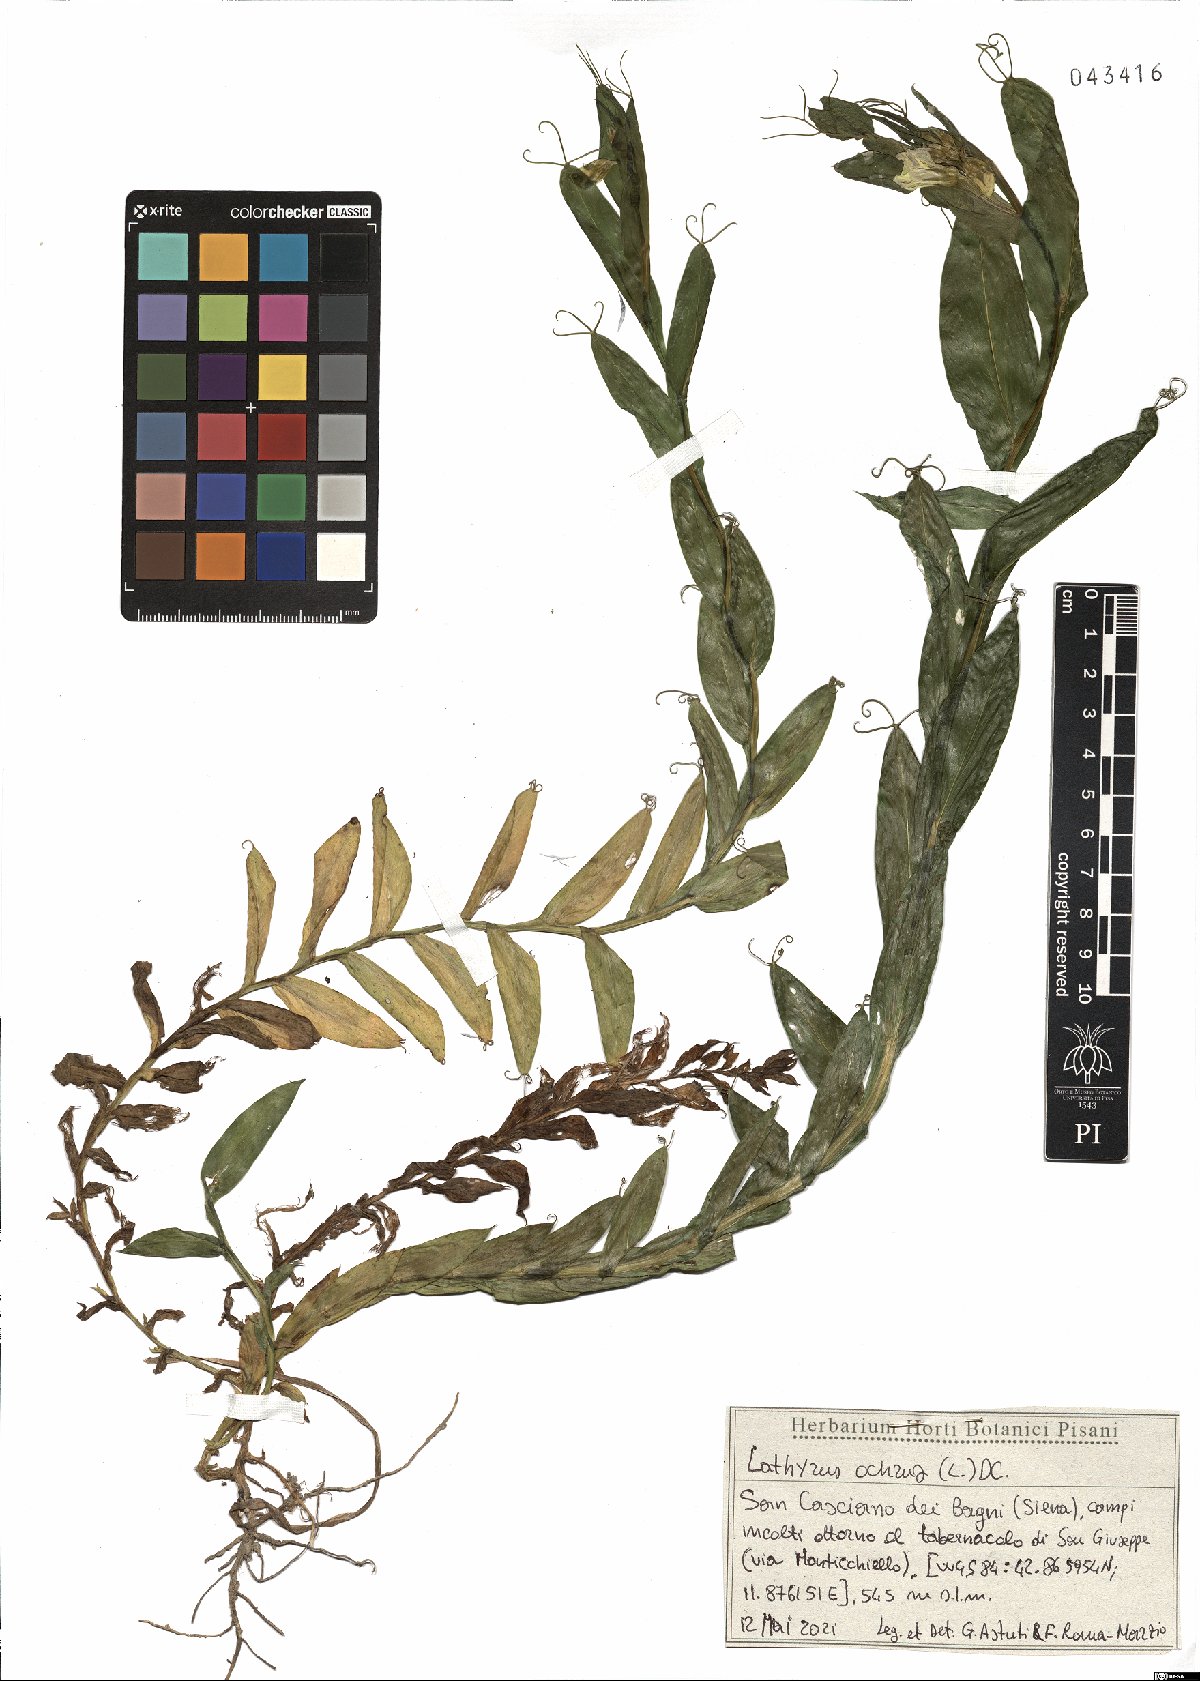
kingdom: Plantae
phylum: Tracheophyta
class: Magnoliopsida
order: Fabales
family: Fabaceae
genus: Lathyrus
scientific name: Lathyrus ochrus
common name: Winged vetchling
